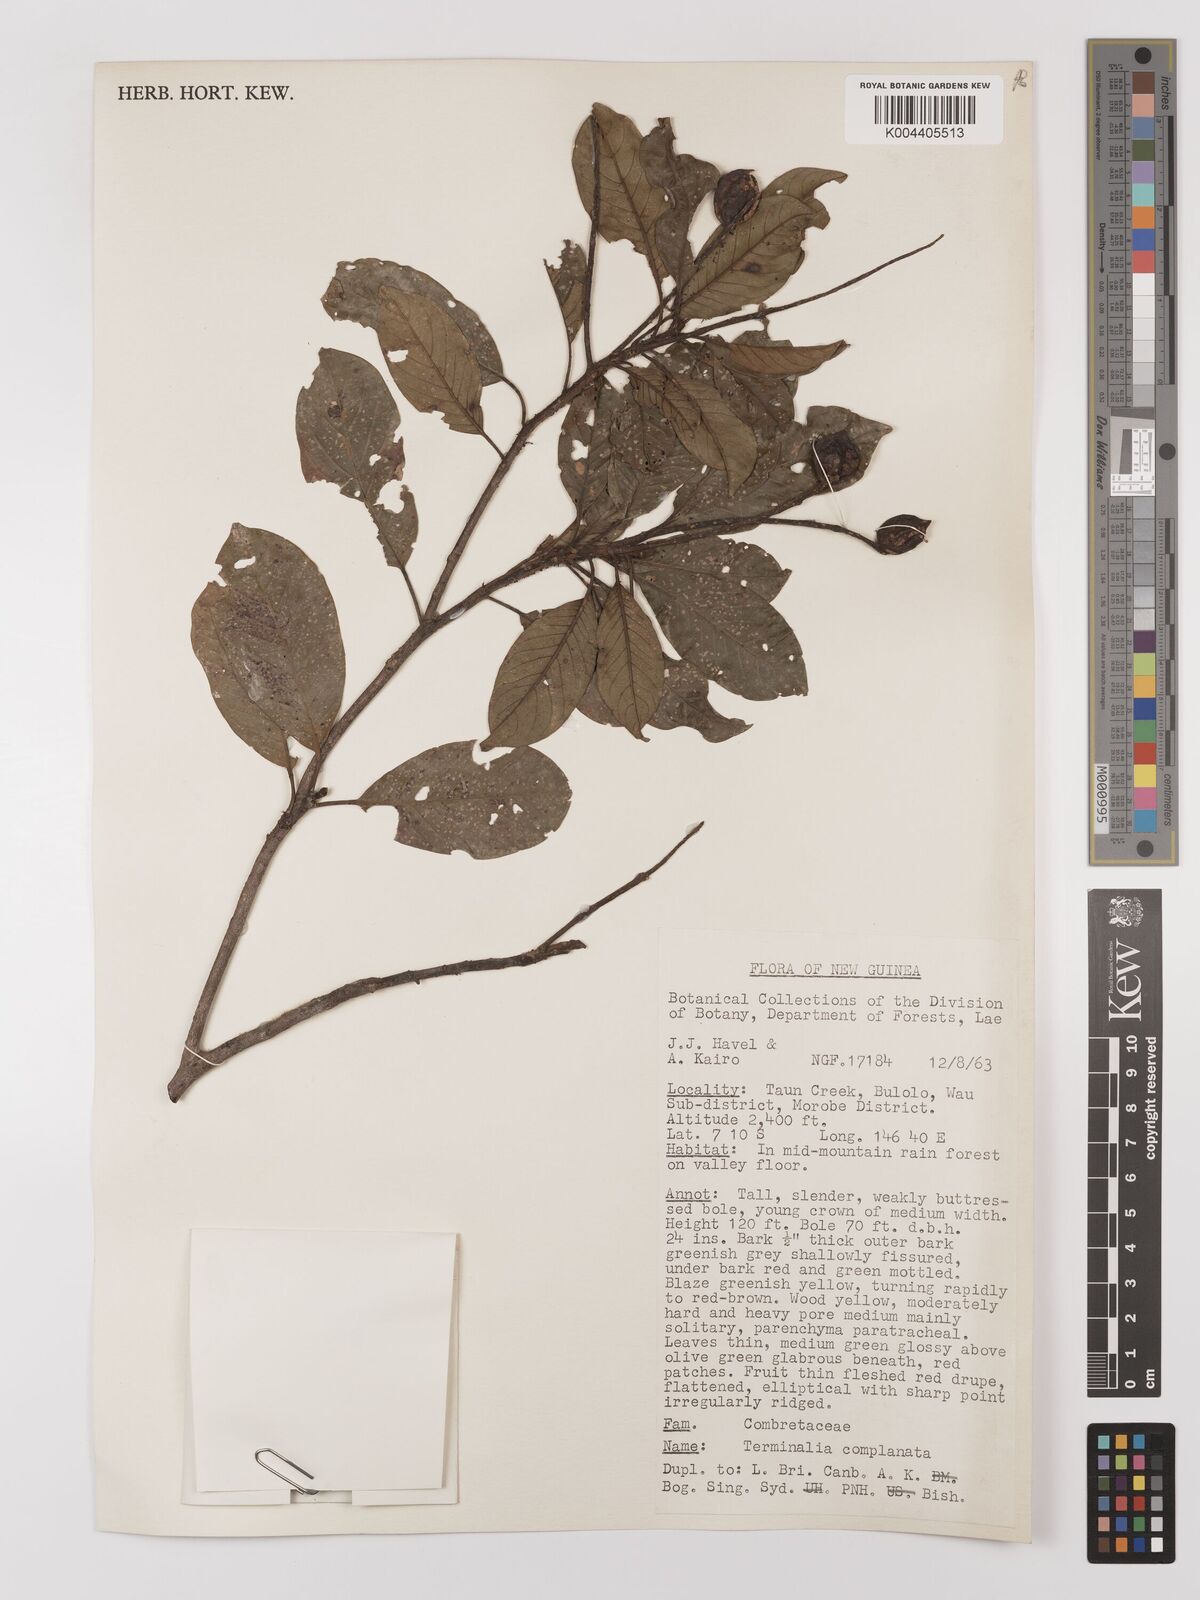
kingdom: Plantae
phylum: Tracheophyta
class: Magnoliopsida
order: Myrtales
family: Combretaceae
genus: Terminalia
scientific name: Terminalia complanata
